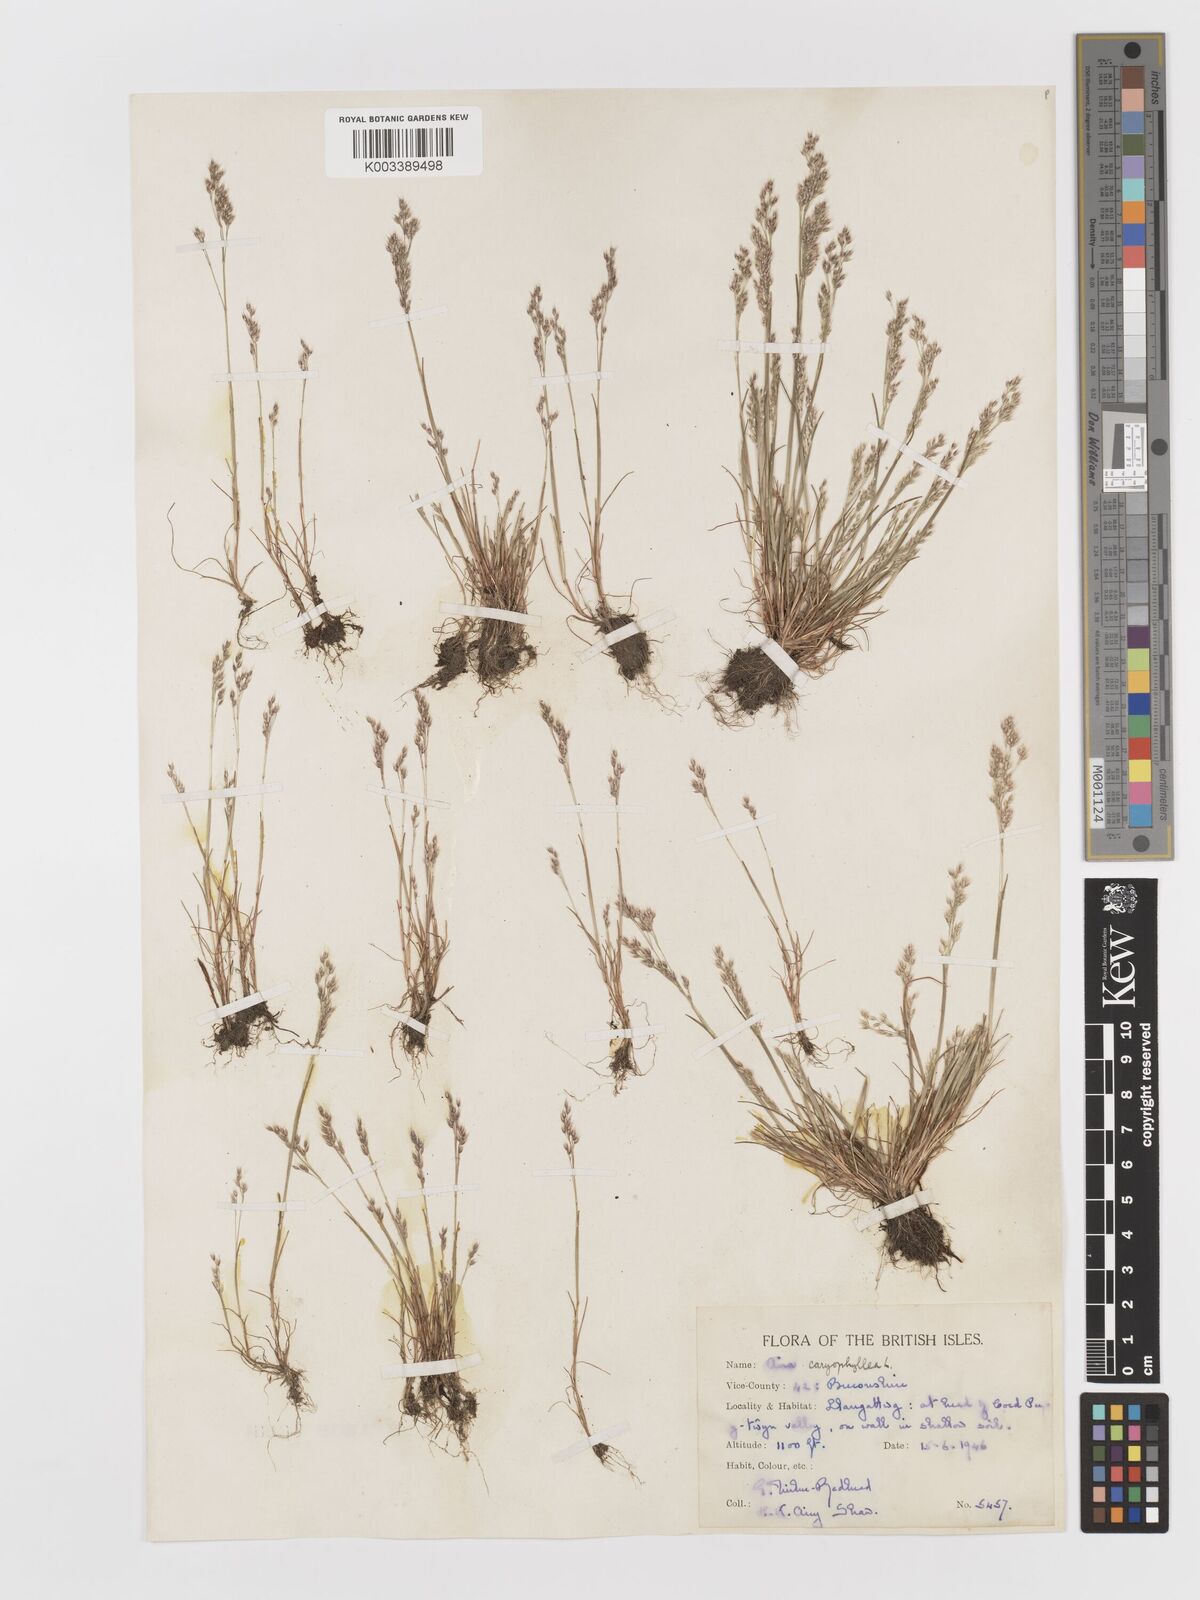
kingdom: Plantae
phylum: Tracheophyta
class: Liliopsida
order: Poales
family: Poaceae
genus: Aira
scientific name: Aira caryophyllea
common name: Silver hairgrass
